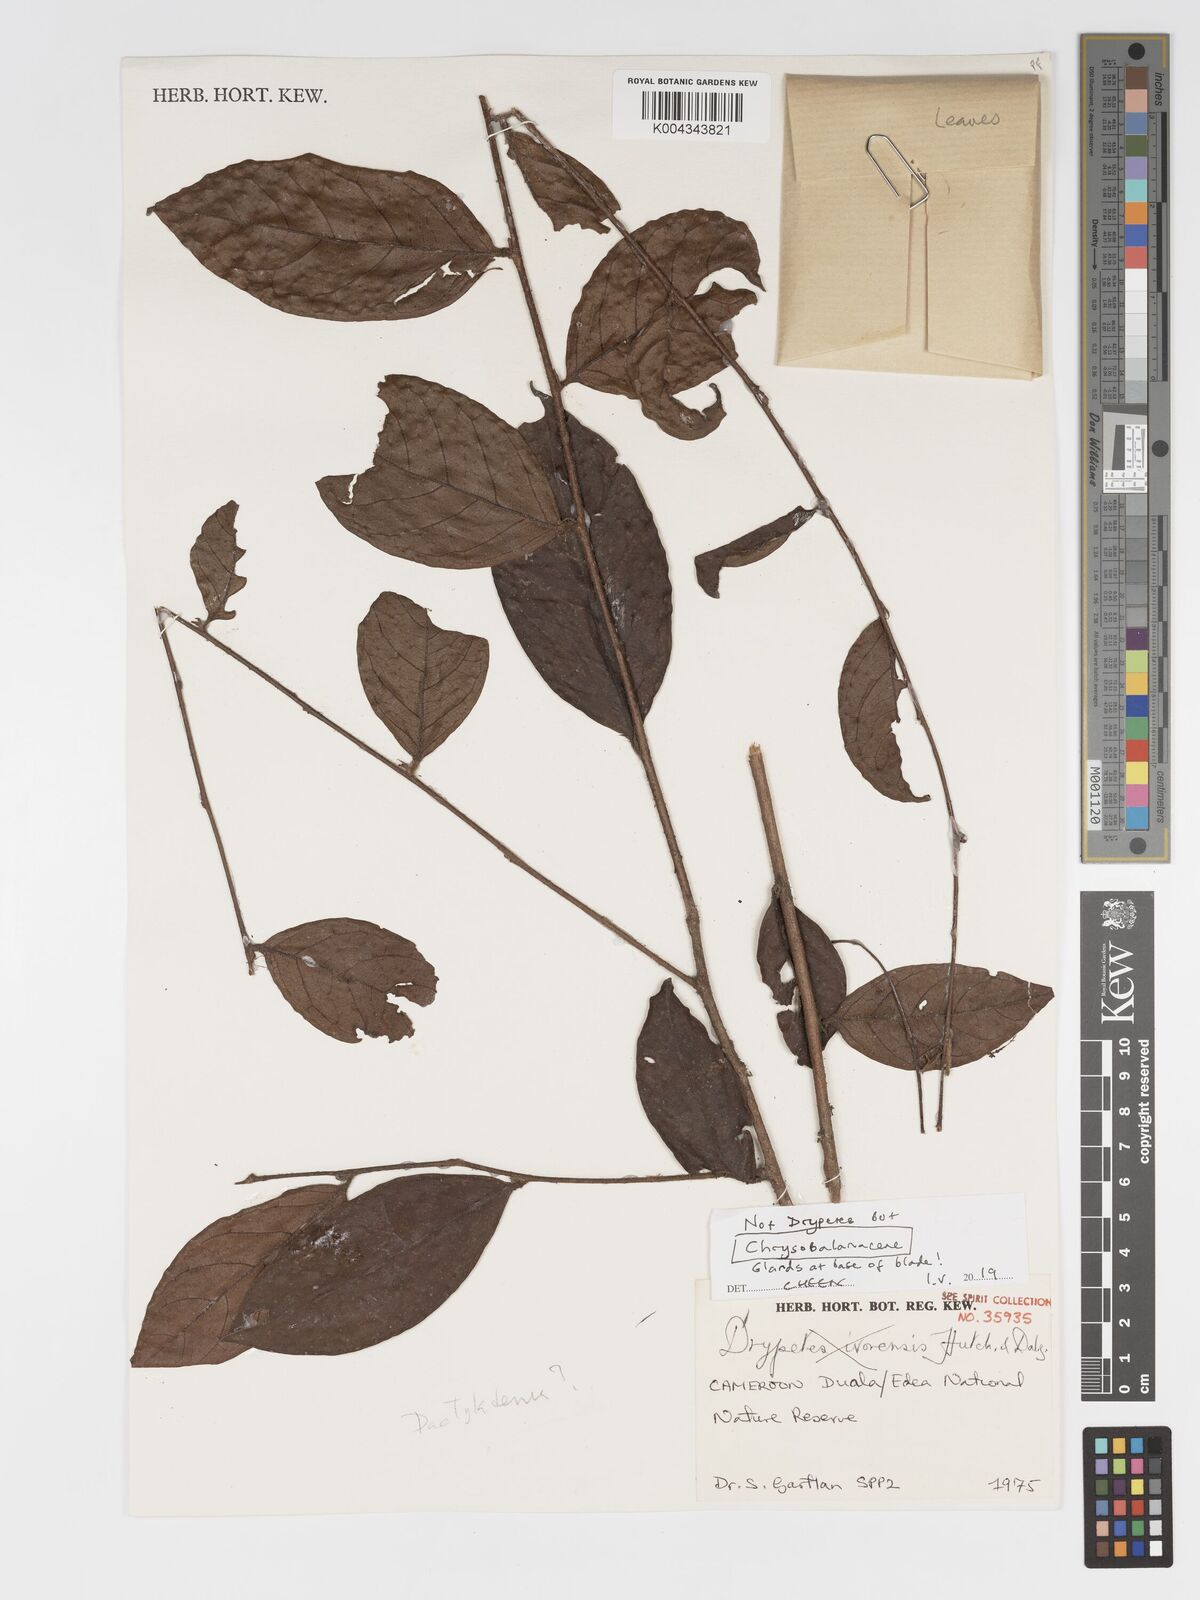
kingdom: Plantae
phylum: Tracheophyta
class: Magnoliopsida
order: Malpighiales
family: Chrysobalanaceae
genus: Dactyladenia
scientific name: Dactyladenia
